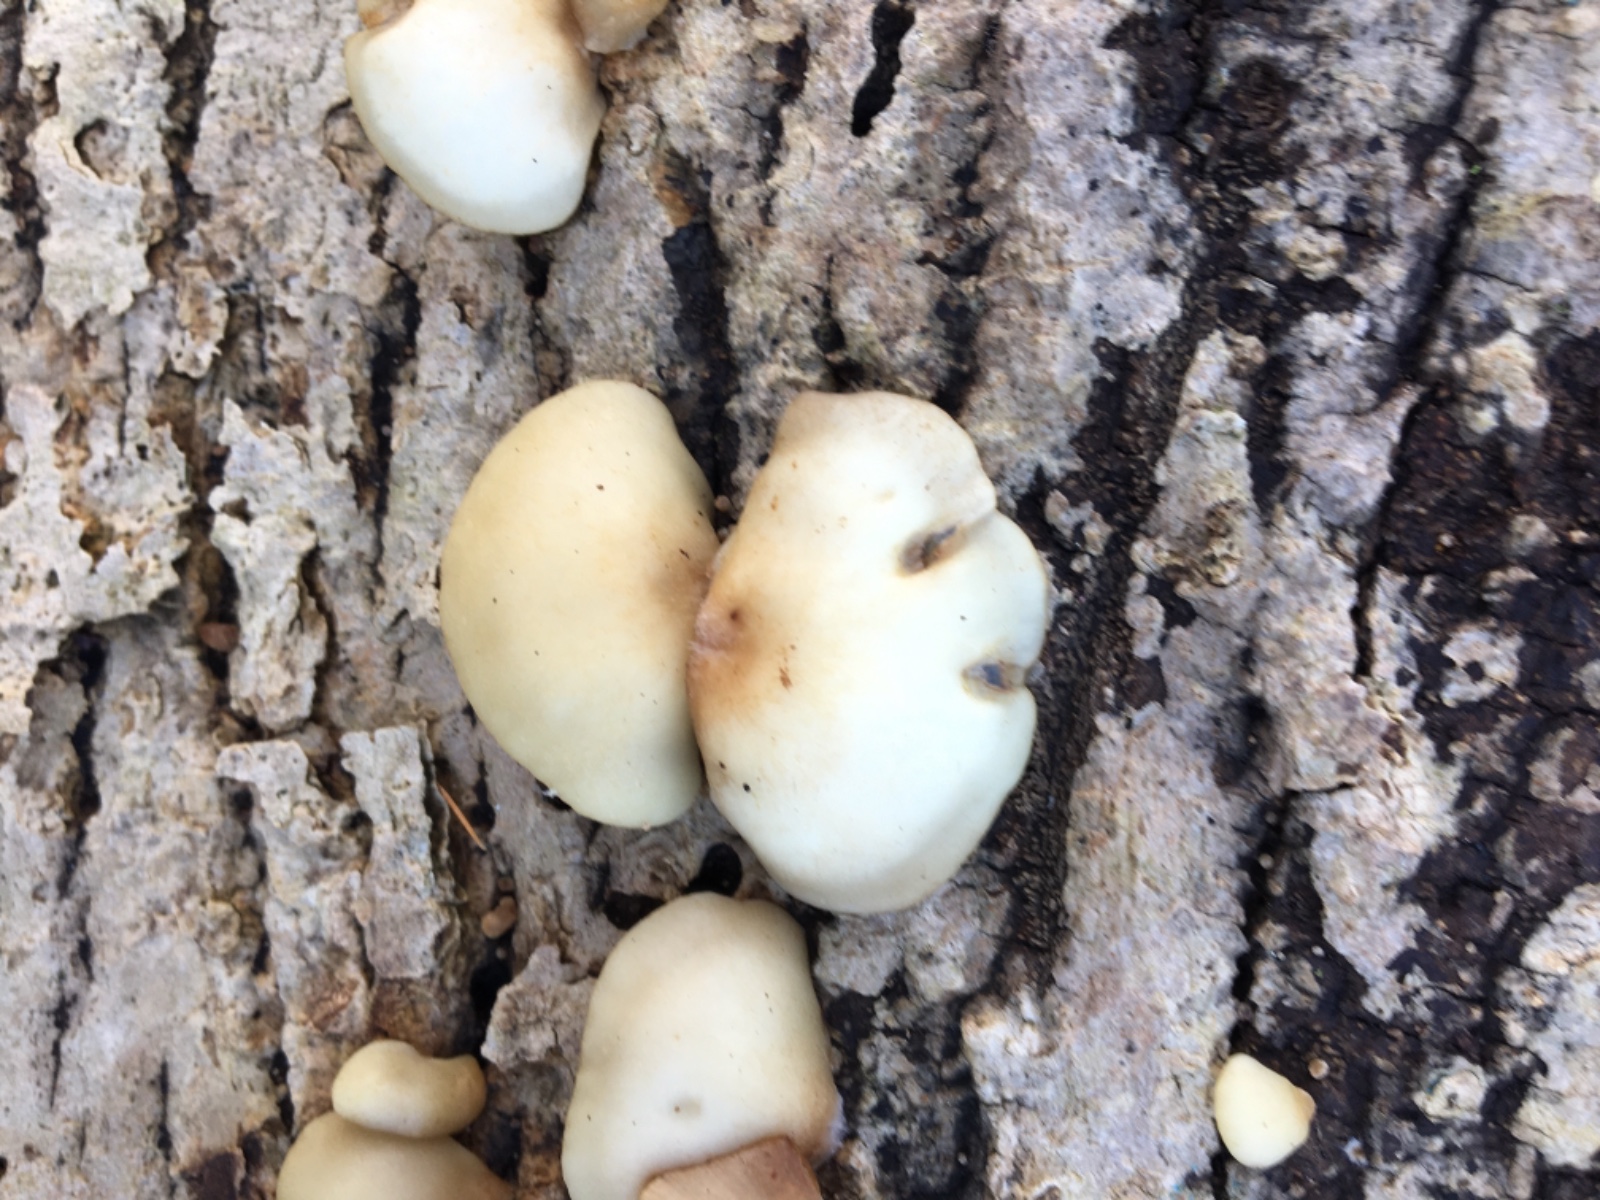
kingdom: Fungi
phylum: Basidiomycota
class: Agaricomycetes
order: Agaricales
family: Crepidotaceae
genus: Crepidotus
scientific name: Crepidotus mollis
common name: blød muslingesvamp
